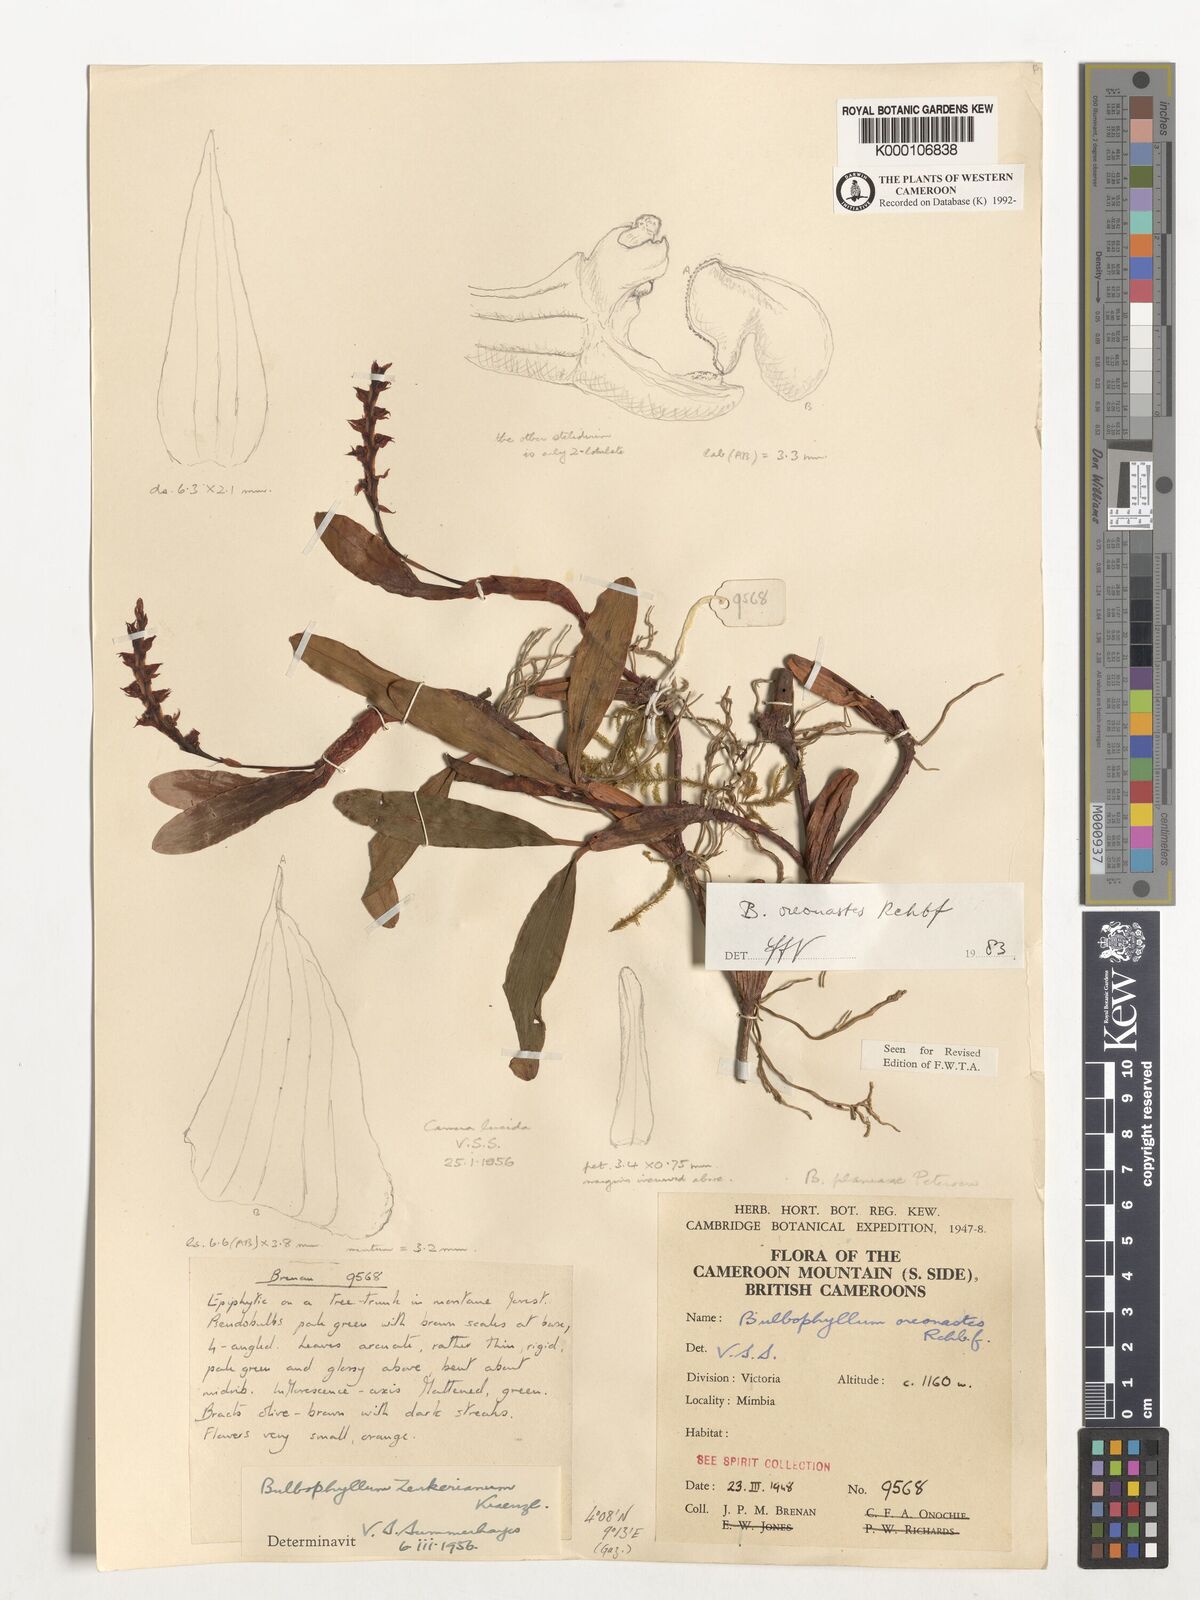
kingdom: Plantae
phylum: Tracheophyta
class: Liliopsida
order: Asparagales
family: Orchidaceae
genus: Bulbophyllum
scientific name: Bulbophyllum oreonastes
